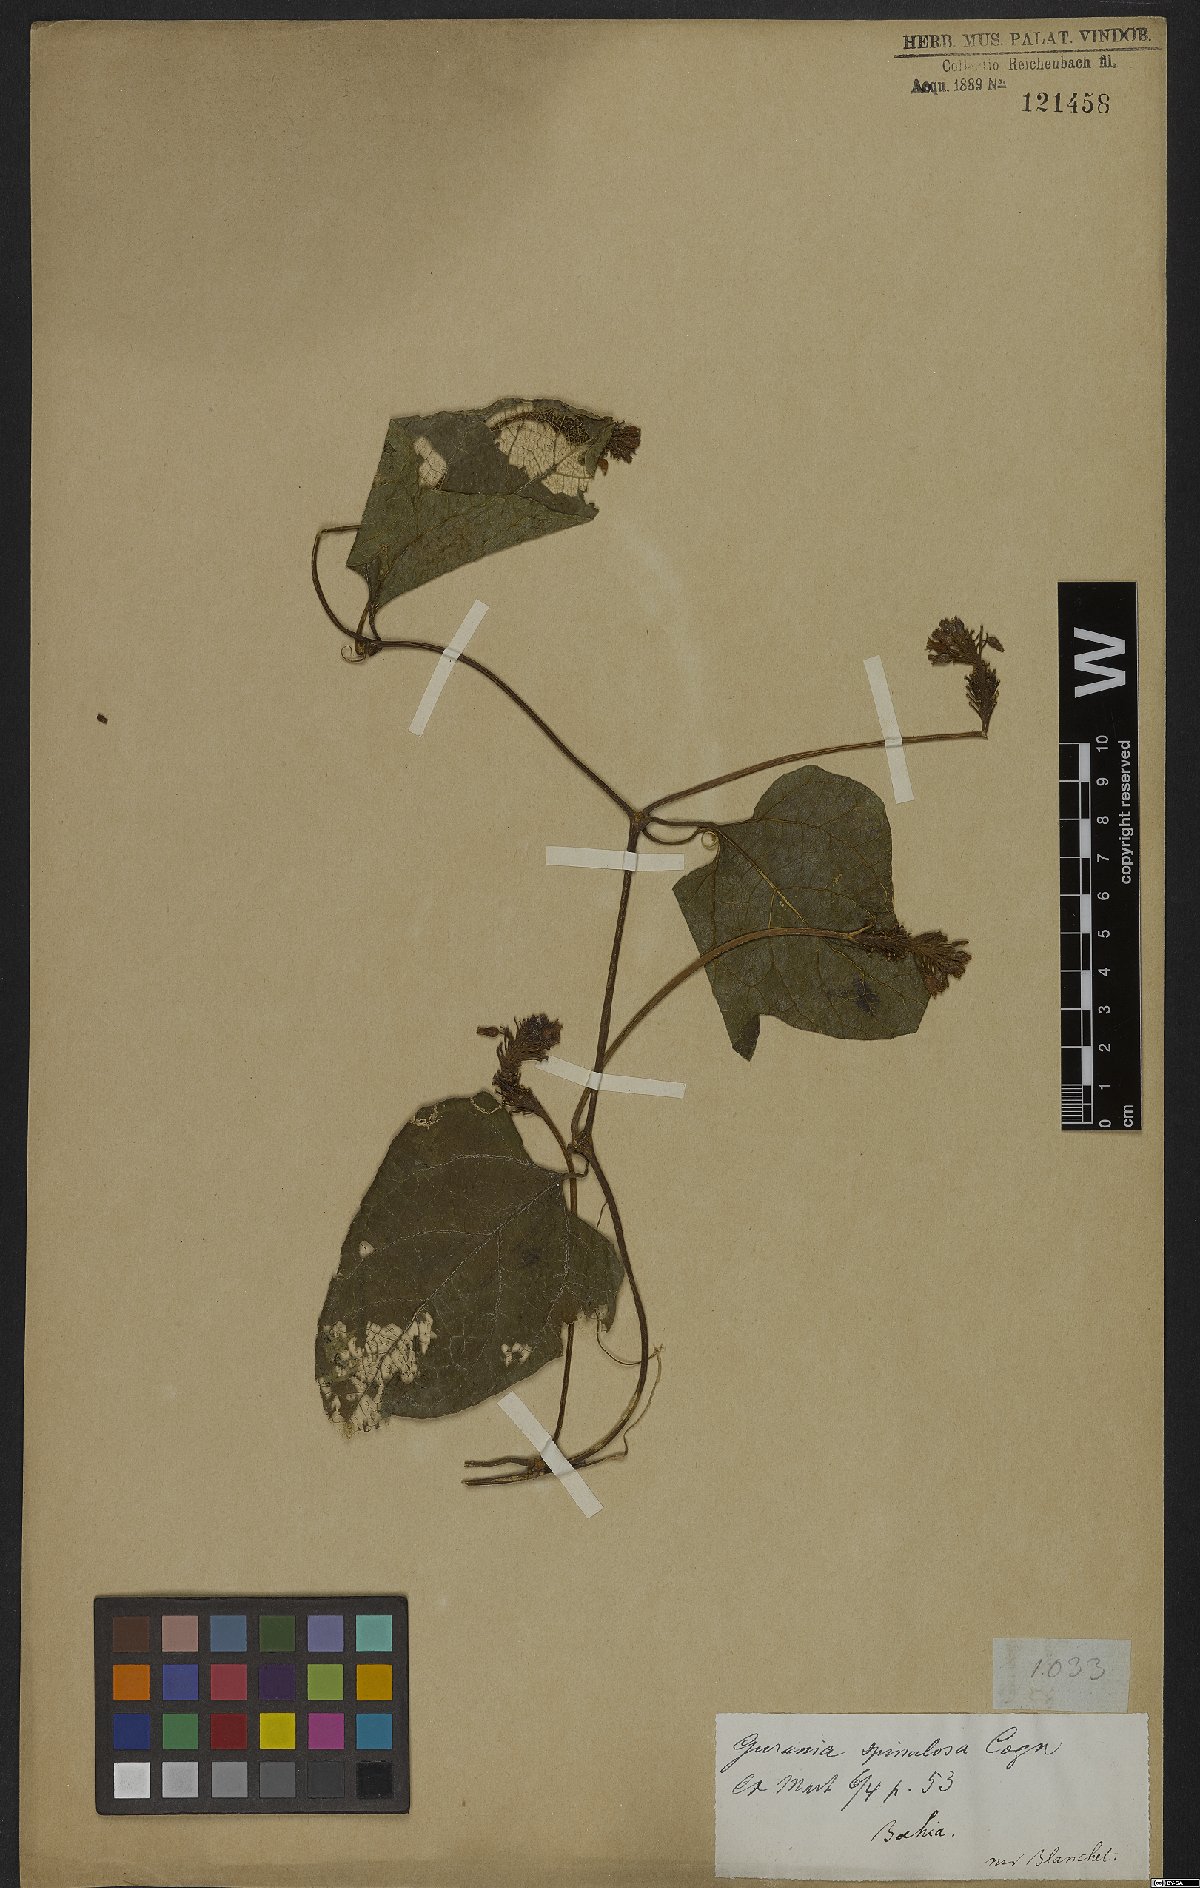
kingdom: Plantae
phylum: Tracheophyta
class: Magnoliopsida
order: Cucurbitales
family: Cucurbitaceae
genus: Gurania
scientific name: Gurania lobata
